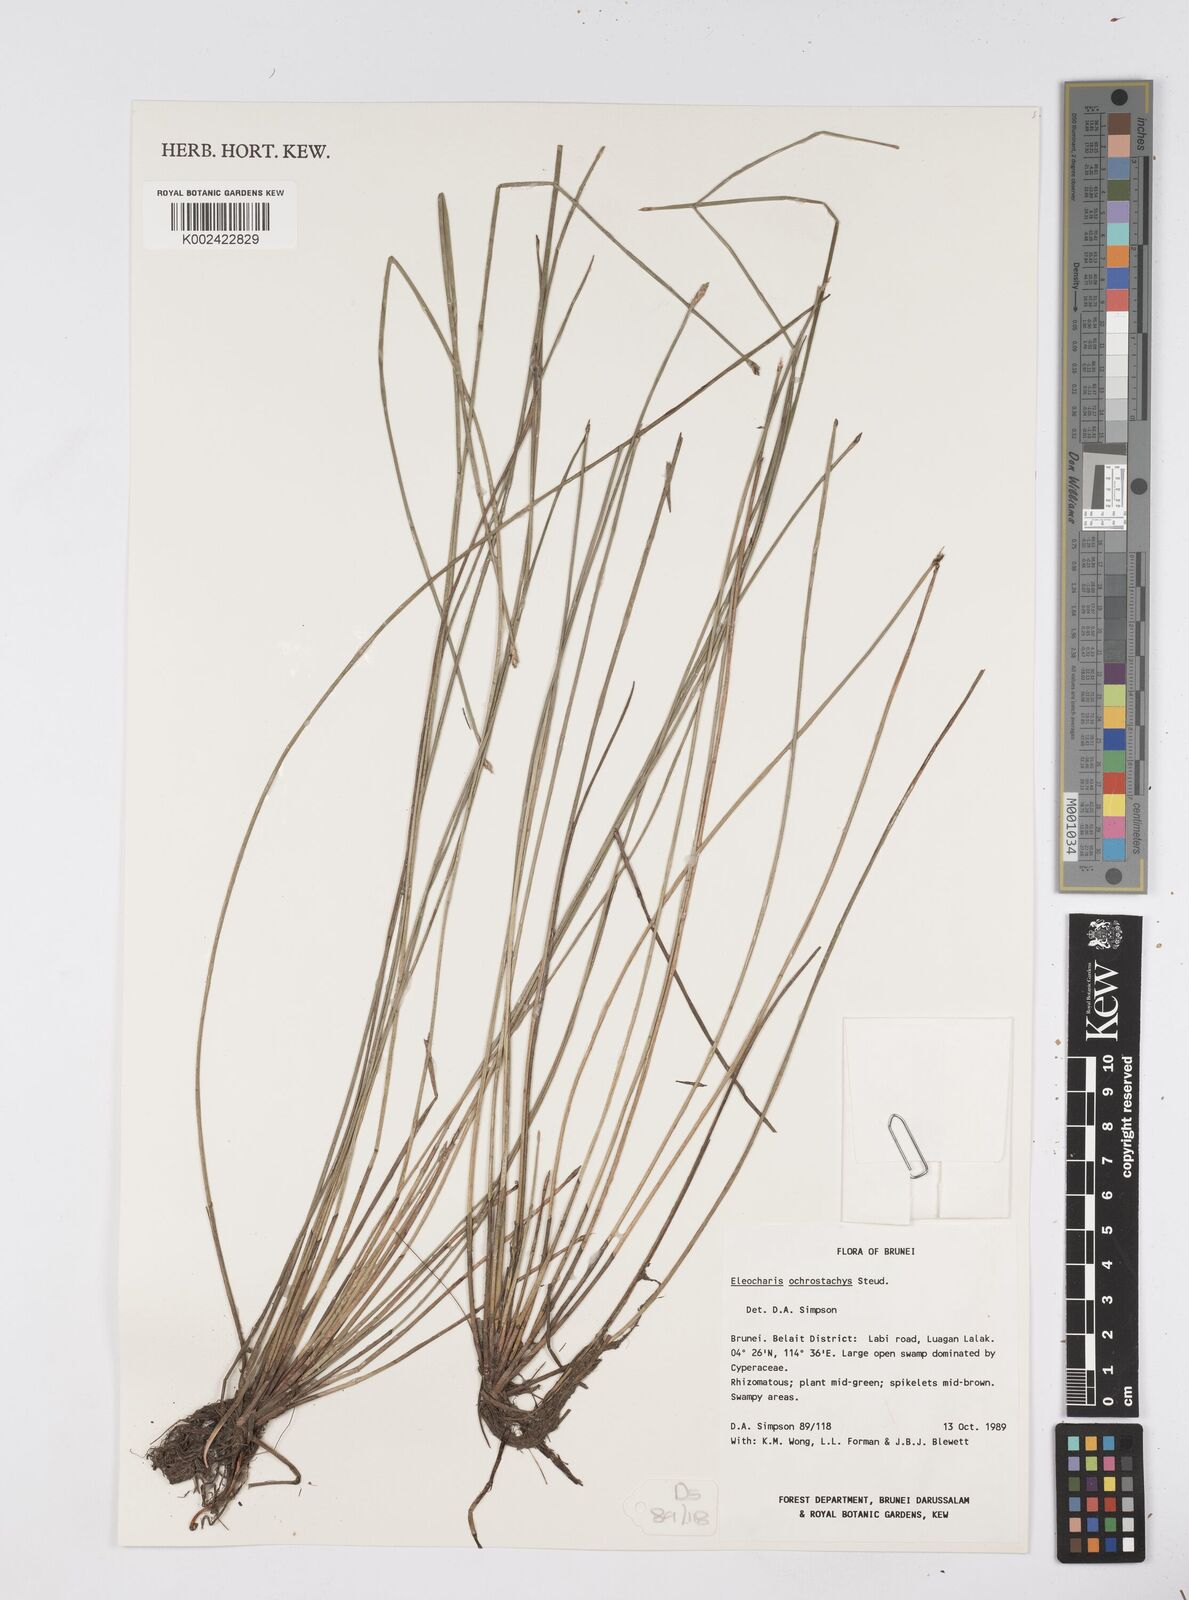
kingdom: Plantae
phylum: Tracheophyta
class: Liliopsida
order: Poales
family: Cyperaceae
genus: Eleocharis
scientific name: Eleocharis ochrostachys
